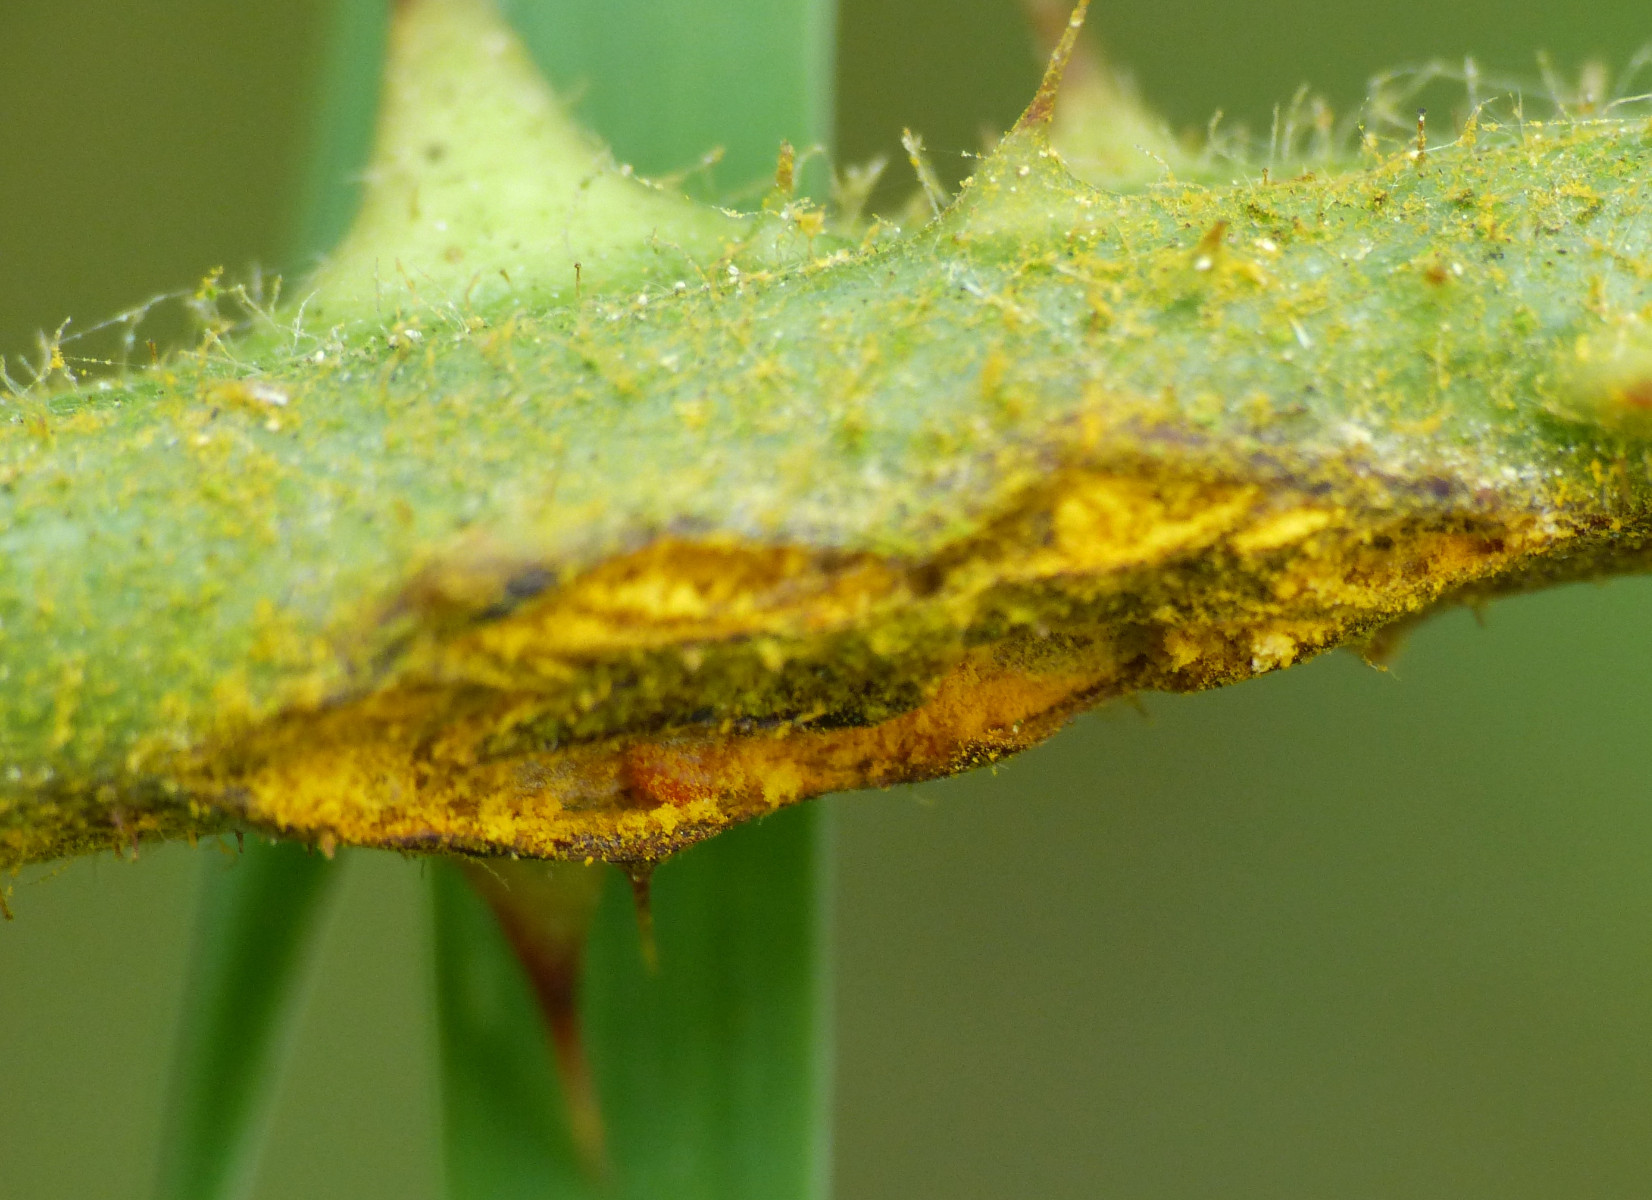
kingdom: Fungi
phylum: Basidiomycota
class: Pucciniomycetes
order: Pucciniales
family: Phragmidiaceae
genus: Kuehneola
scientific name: Kuehneola uredinis
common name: klynger-kædecellerust
